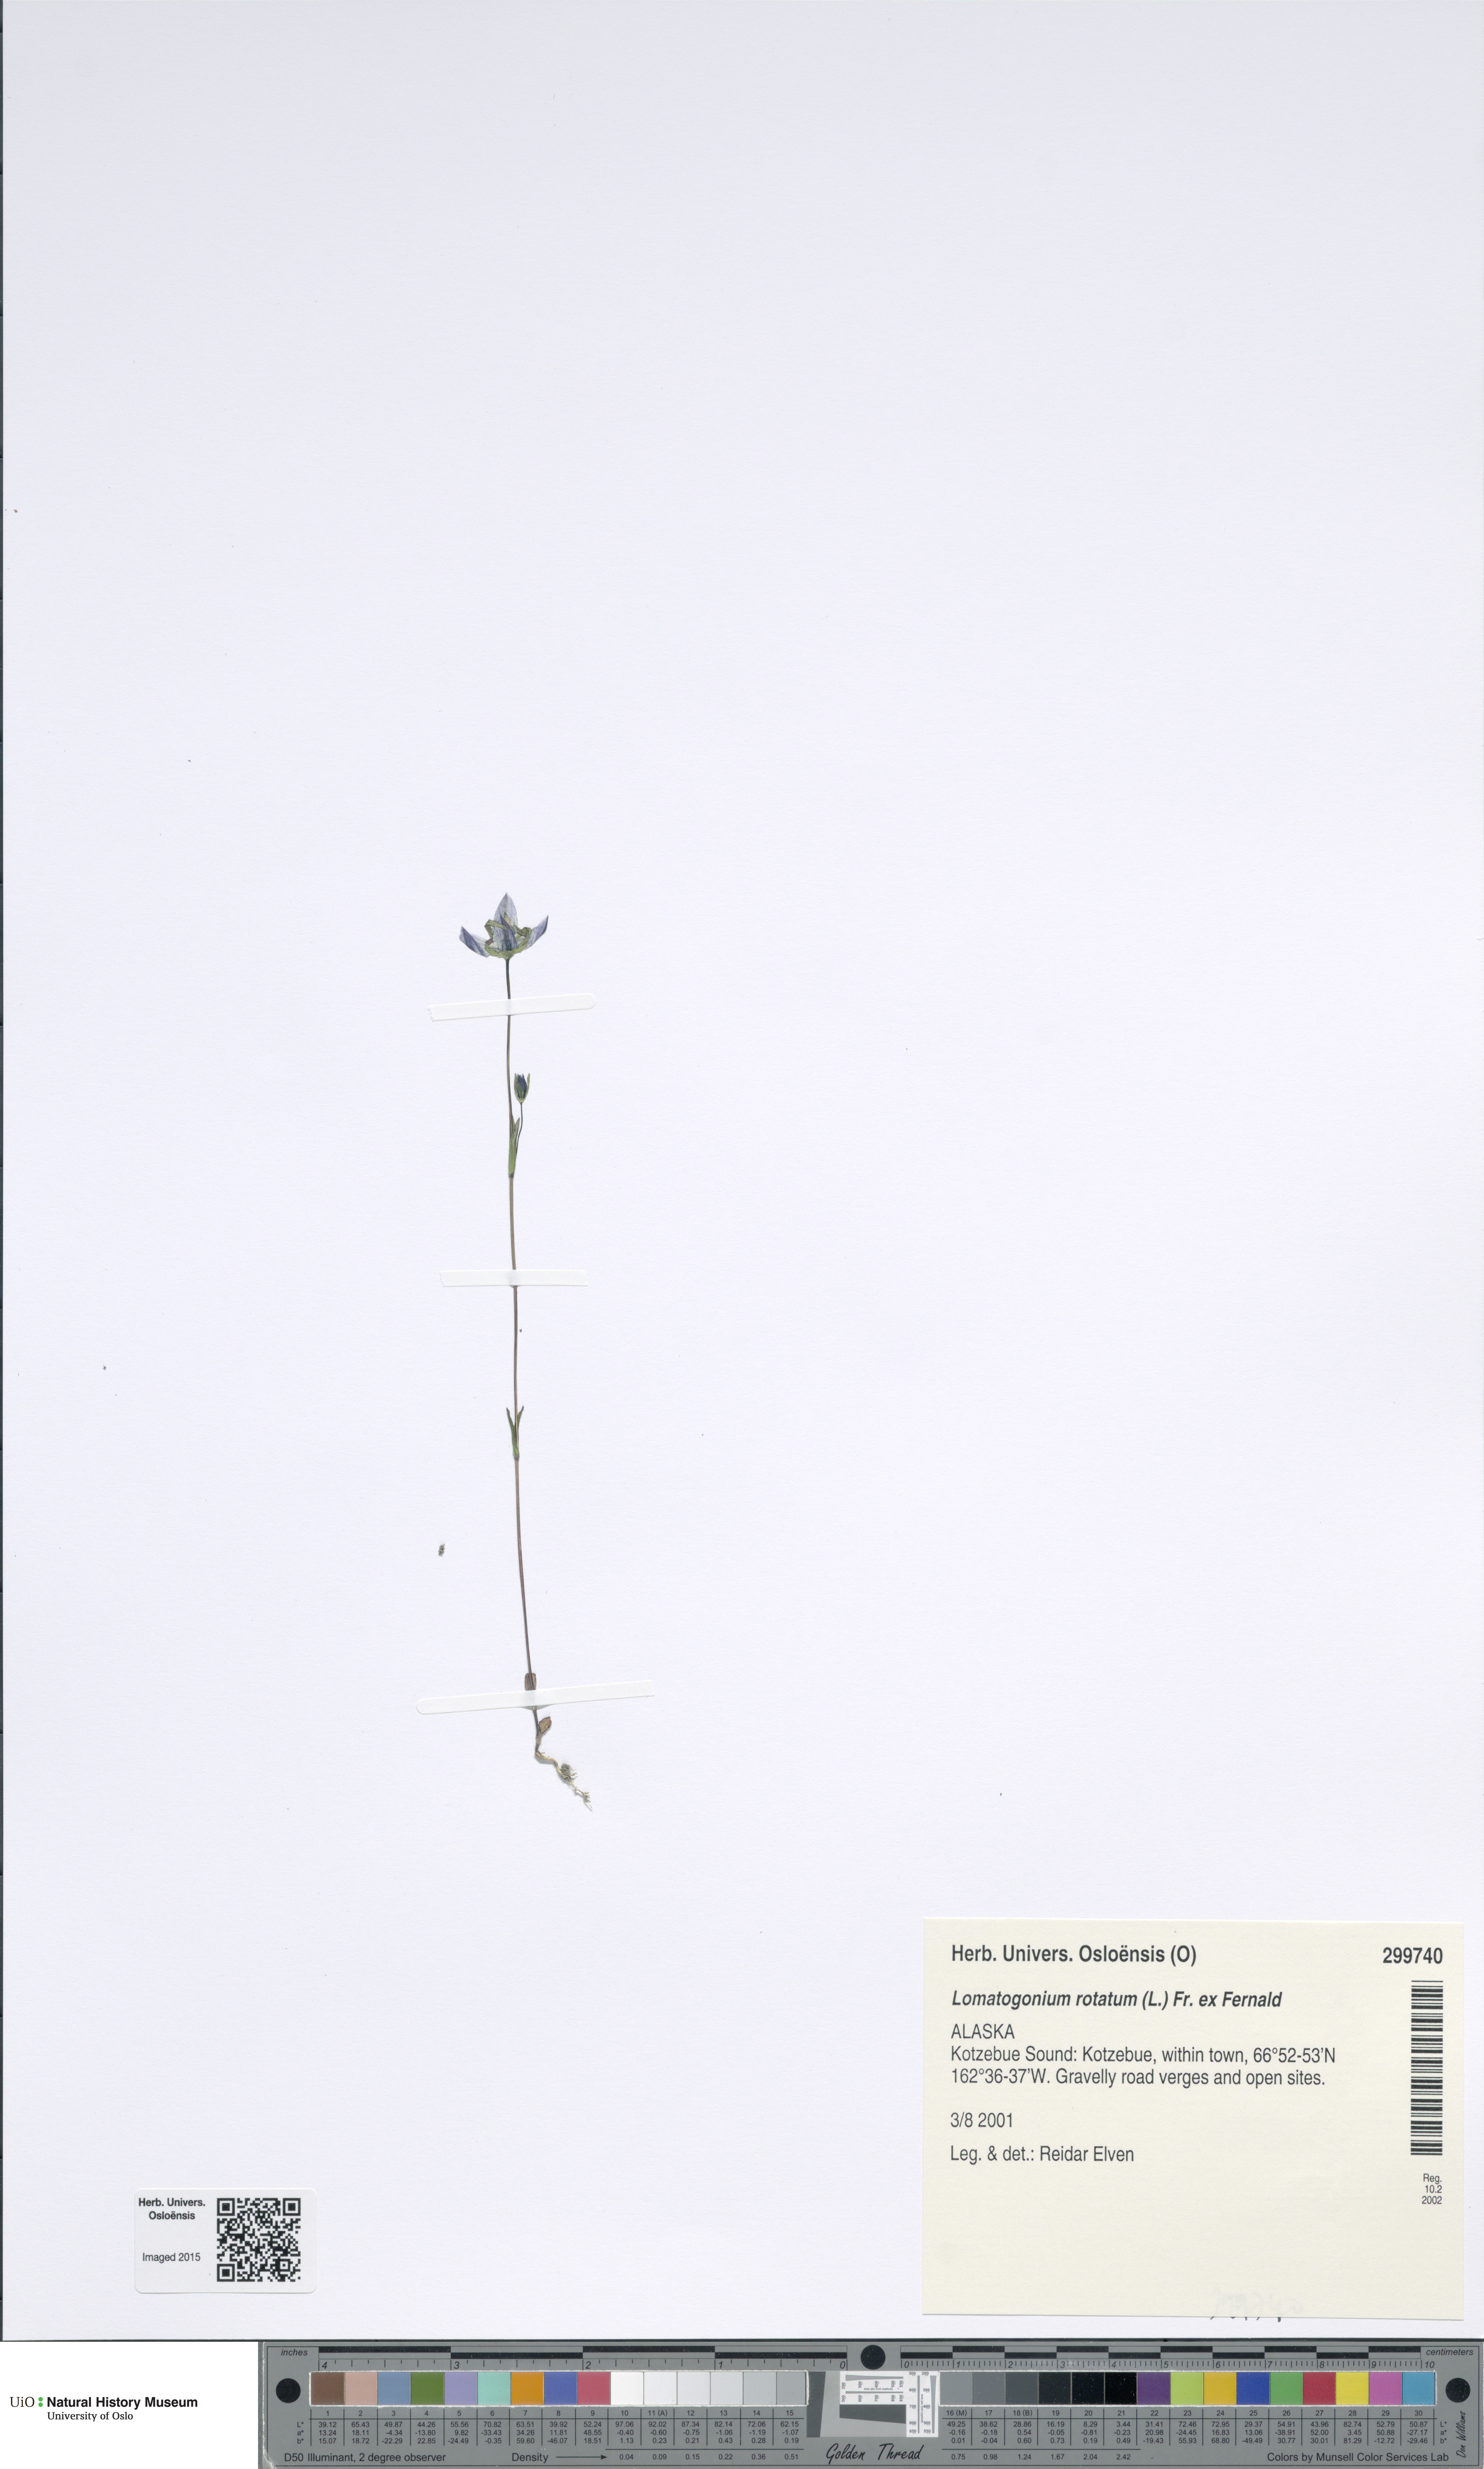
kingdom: Plantae
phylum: Tracheophyta
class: Magnoliopsida
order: Gentianales
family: Gentianaceae
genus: Lomatogonium
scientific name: Lomatogonium rotatum
